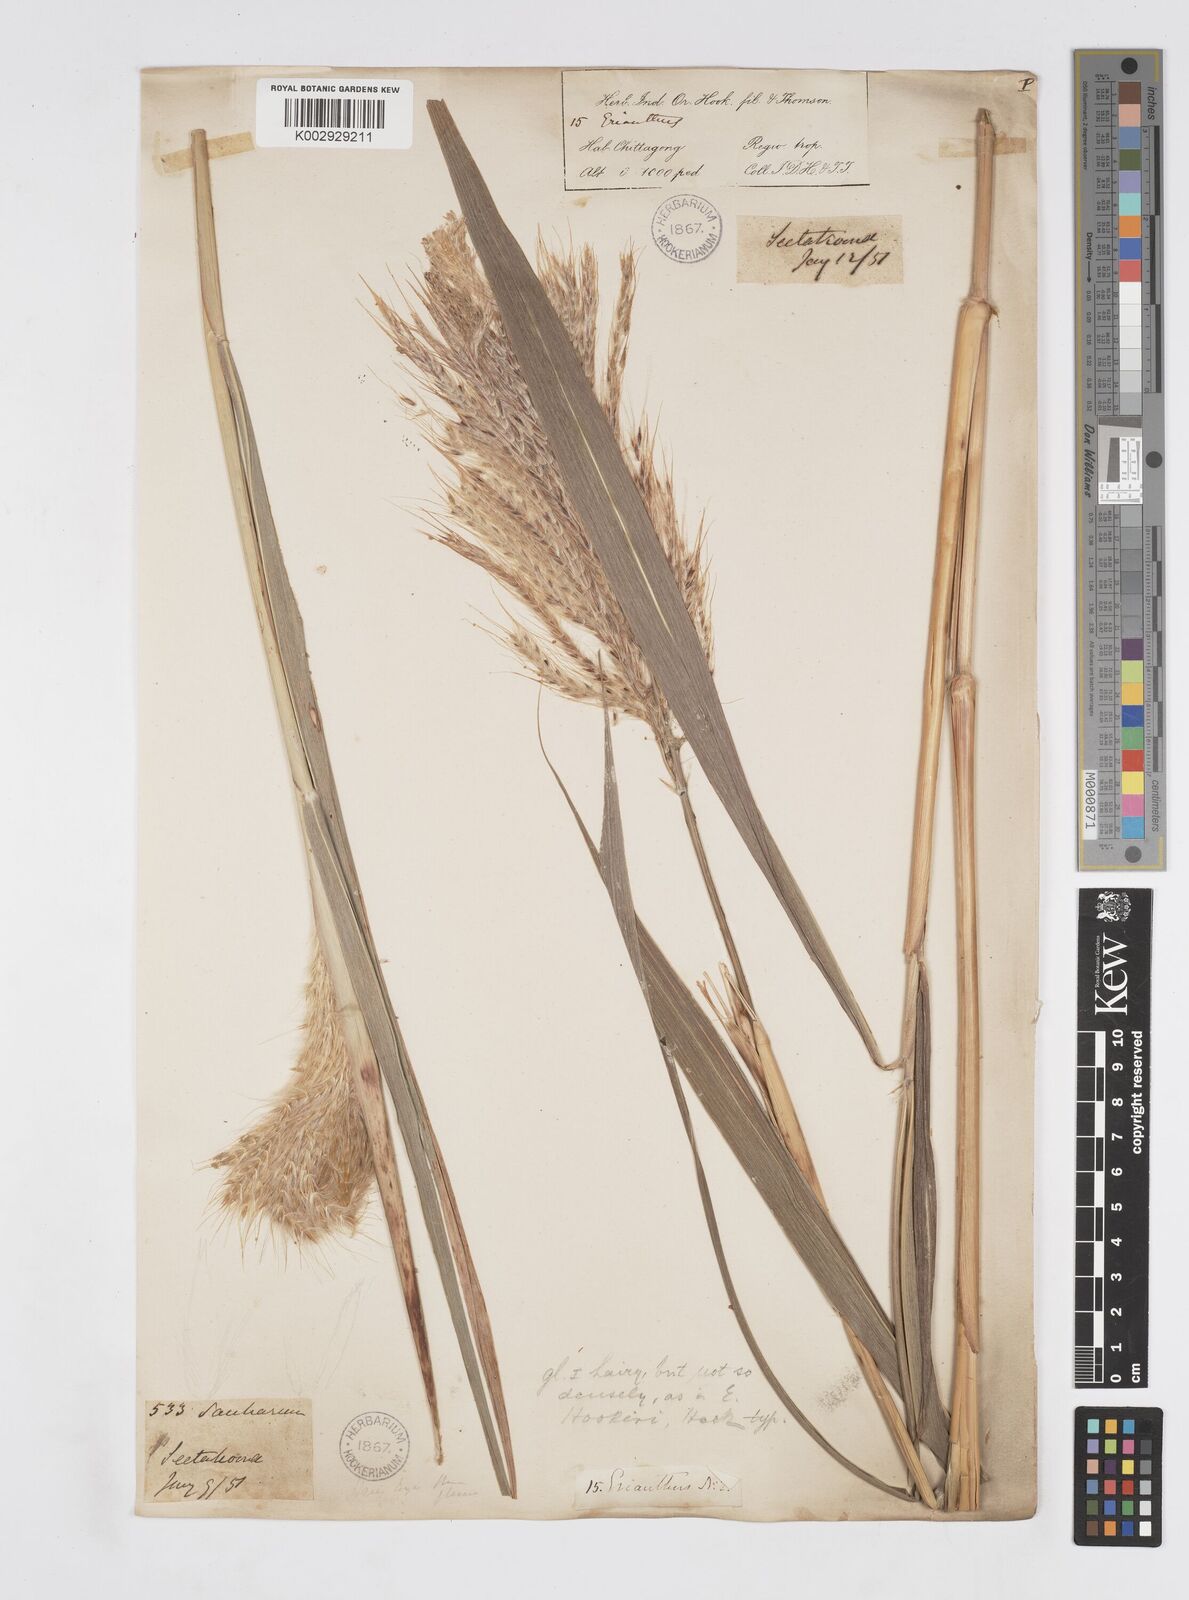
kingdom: Plantae
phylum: Tracheophyta
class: Liliopsida
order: Poales
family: Poaceae
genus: Melinis
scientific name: Melinis longiseta
